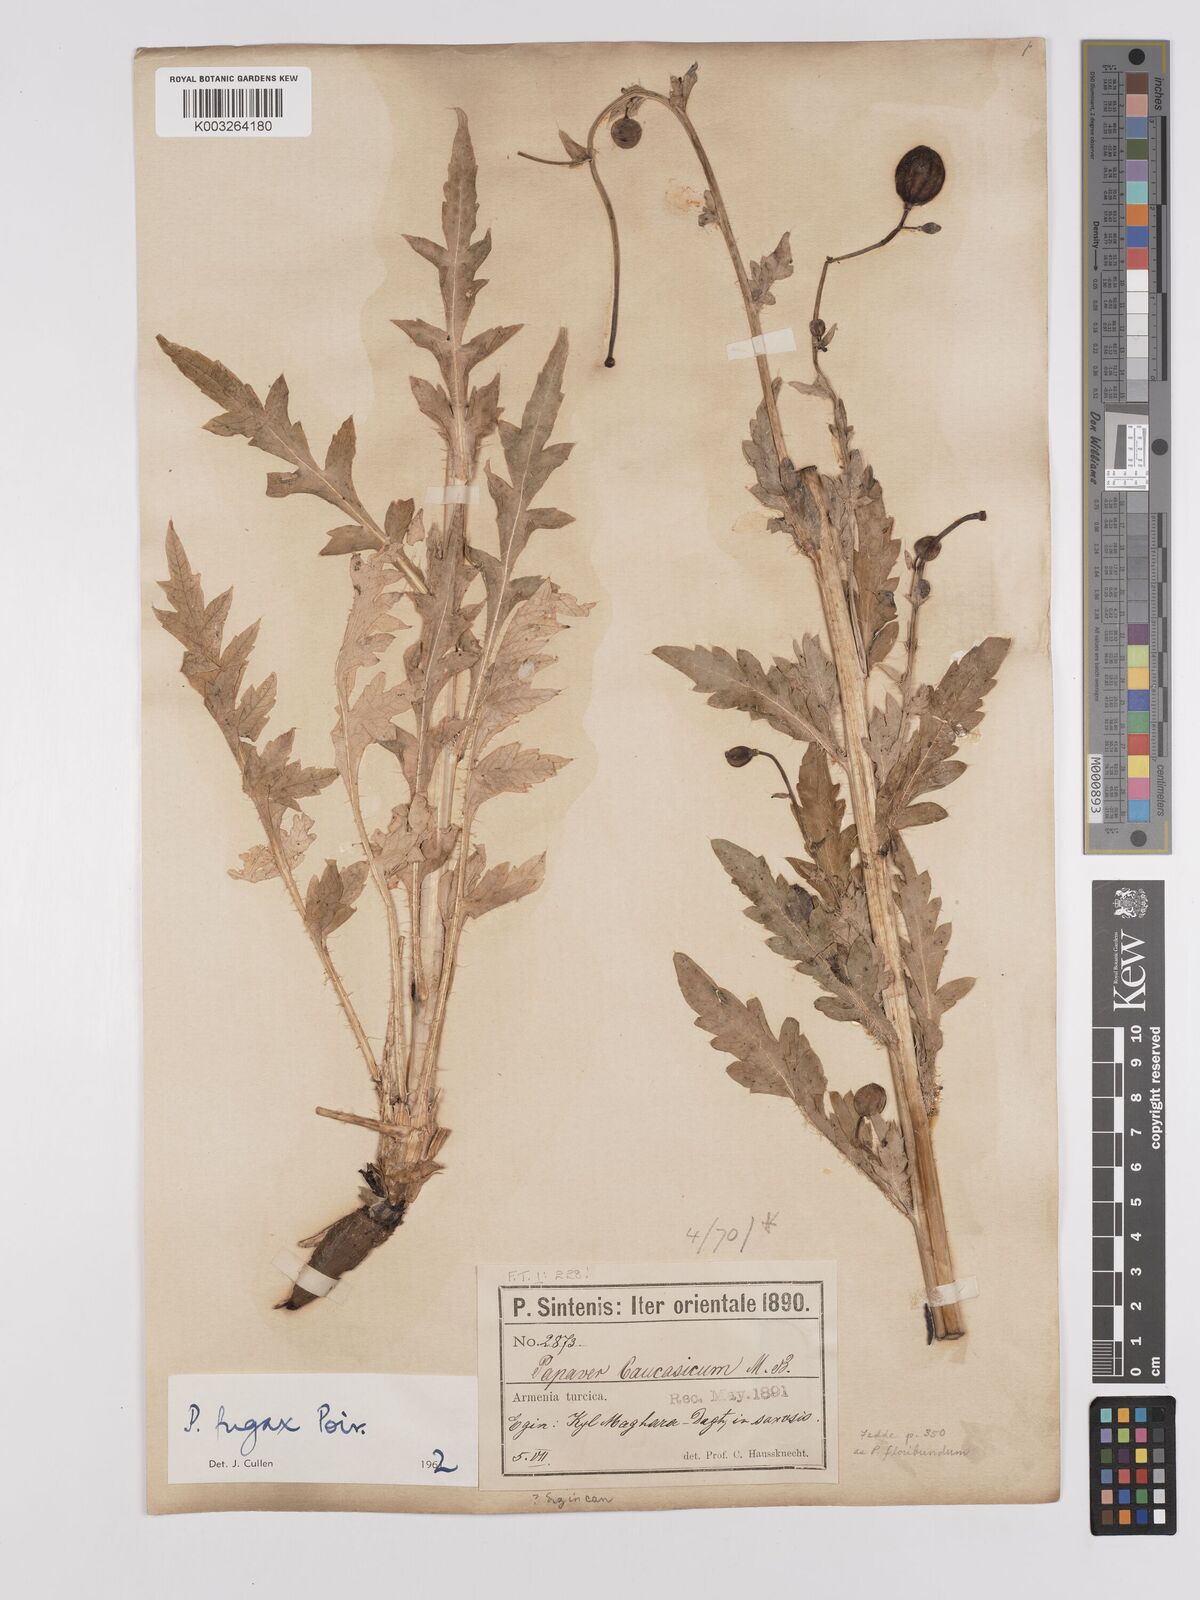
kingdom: Plantae
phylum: Tracheophyta
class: Magnoliopsida
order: Ranunculales
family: Papaveraceae
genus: Papaver
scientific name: Papaver armeniacum
